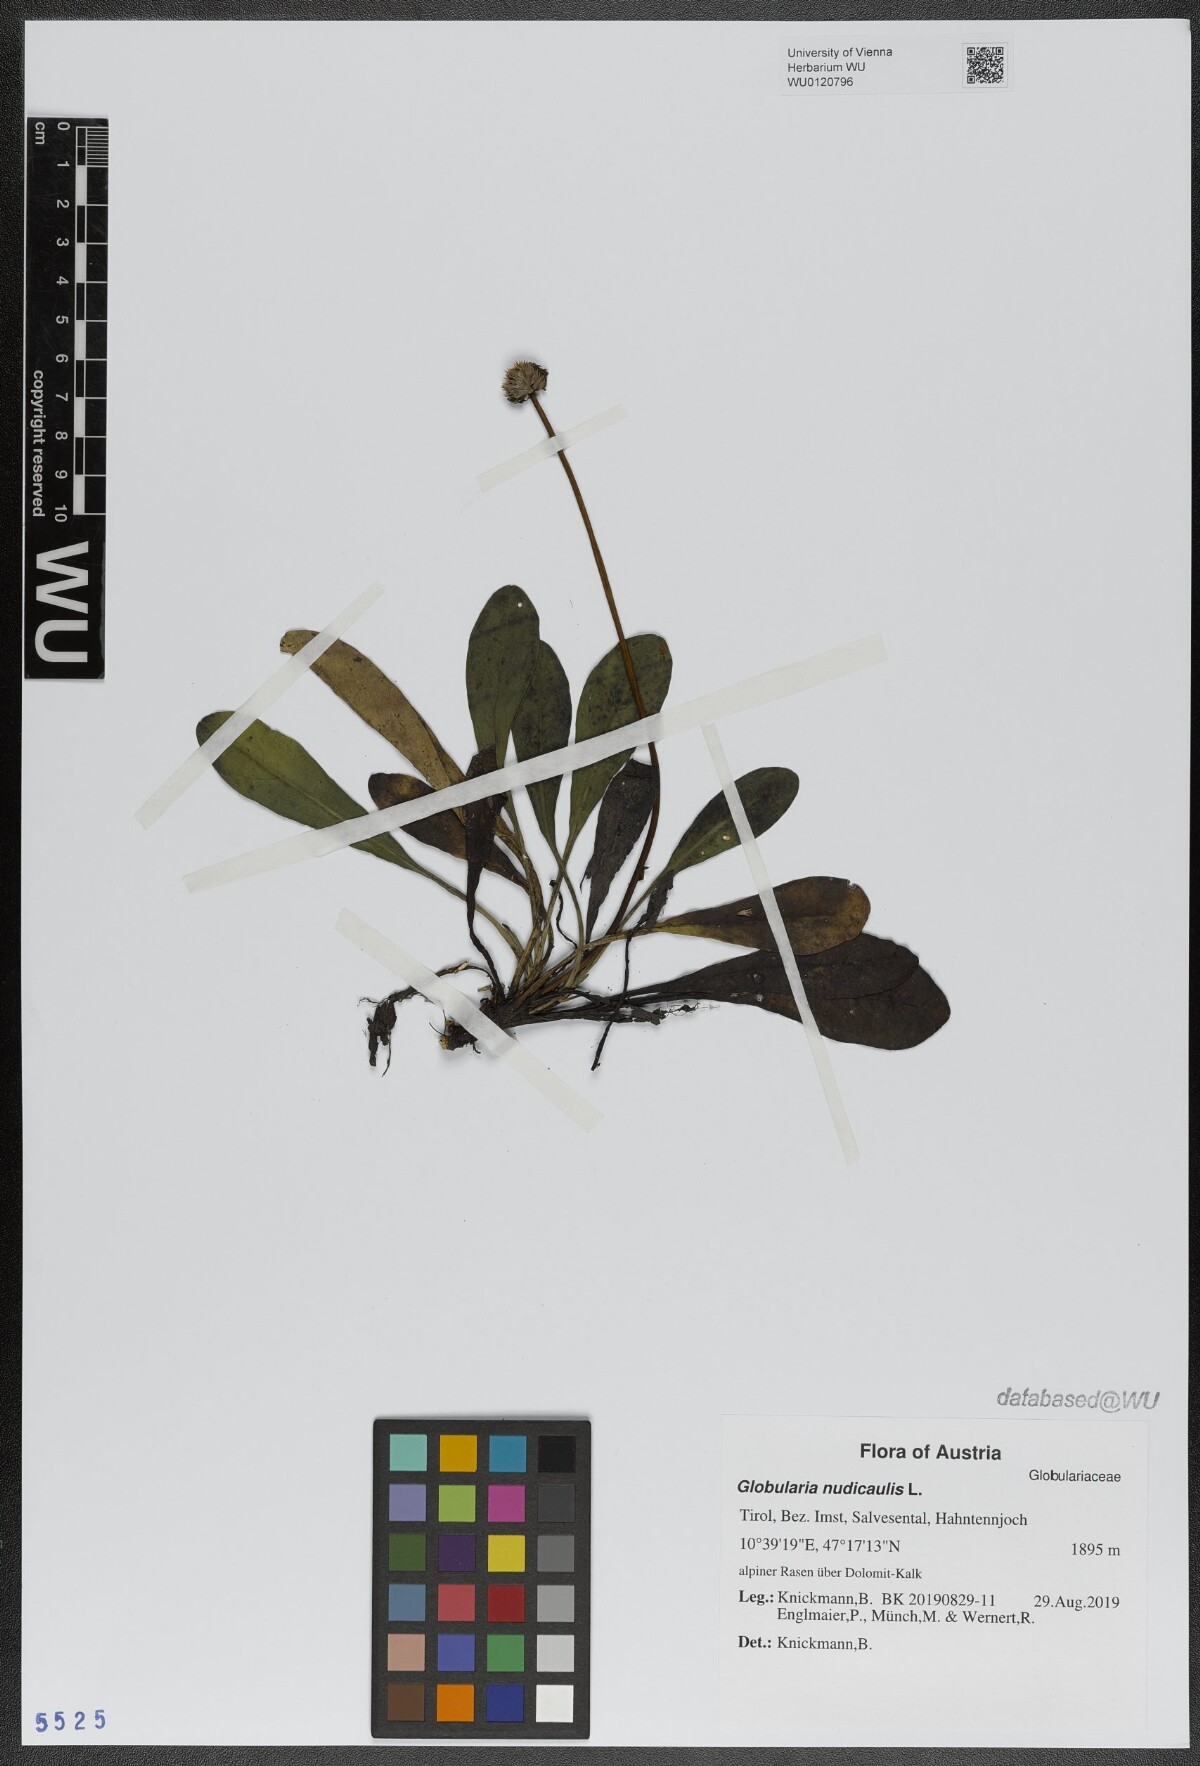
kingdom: Plantae
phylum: Tracheophyta
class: Magnoliopsida
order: Lamiales
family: Plantaginaceae
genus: Globularia
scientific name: Globularia nudicaulis
